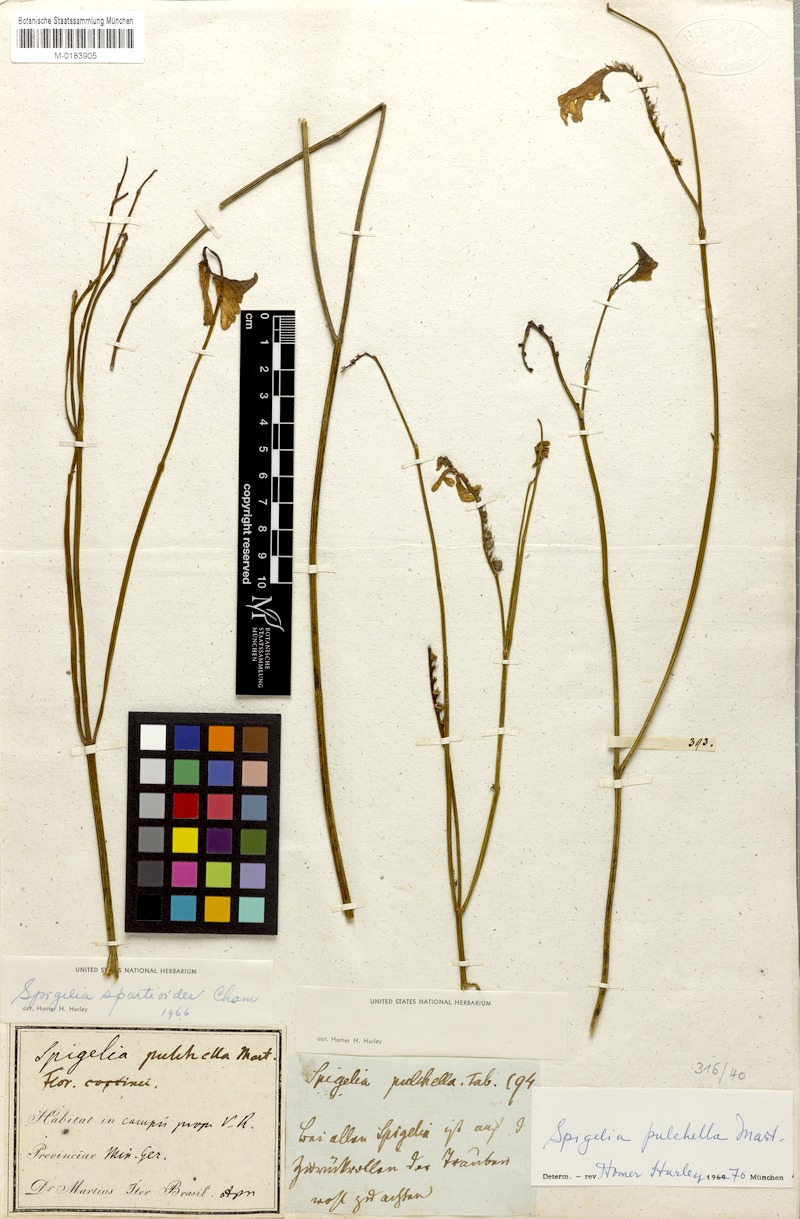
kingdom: Plantae
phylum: Tracheophyta
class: Magnoliopsida
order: Gentianales
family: Loganiaceae
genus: Spigelia
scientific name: Spigelia pulchella
